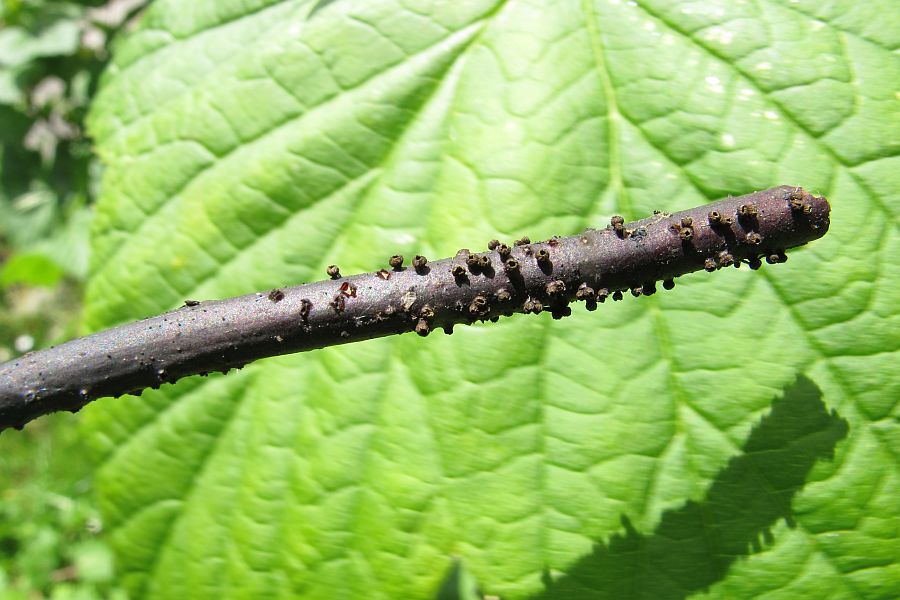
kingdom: Fungi
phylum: Ascomycota
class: Leotiomycetes
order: Helotiales
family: Godroniaceae
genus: Godronia
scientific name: Godronia uberiformis
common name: solbær-urneskive
